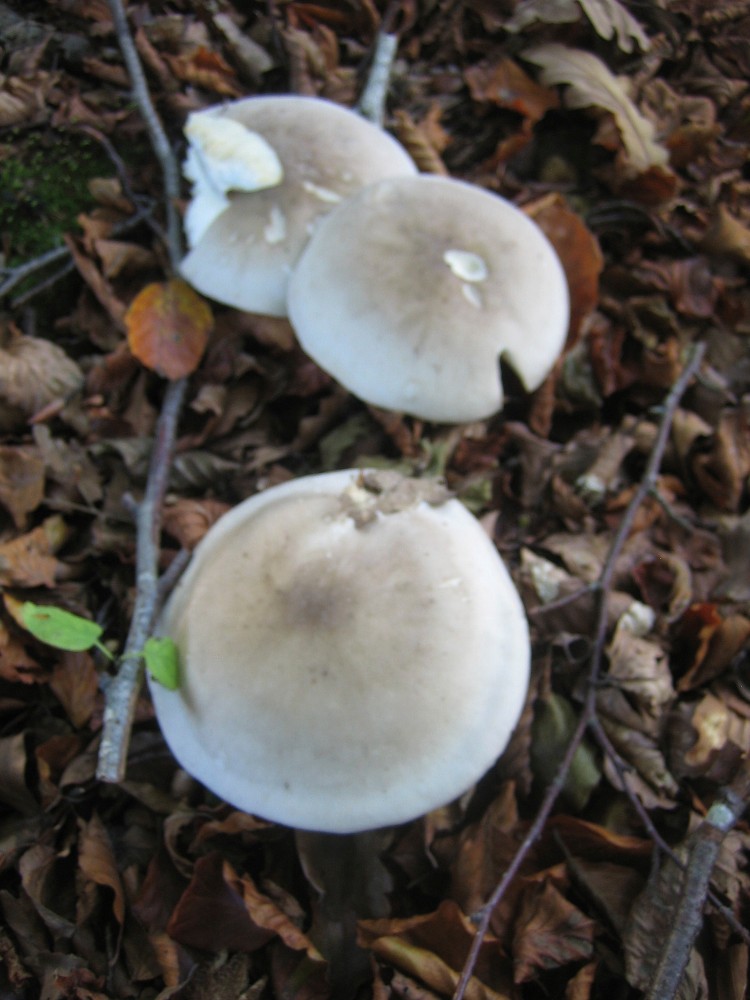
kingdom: Fungi
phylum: Basidiomycota
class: Agaricomycetes
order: Agaricales
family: Tricholomataceae
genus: Clitocybe
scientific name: Clitocybe nebularis
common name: tåge-tragthat
